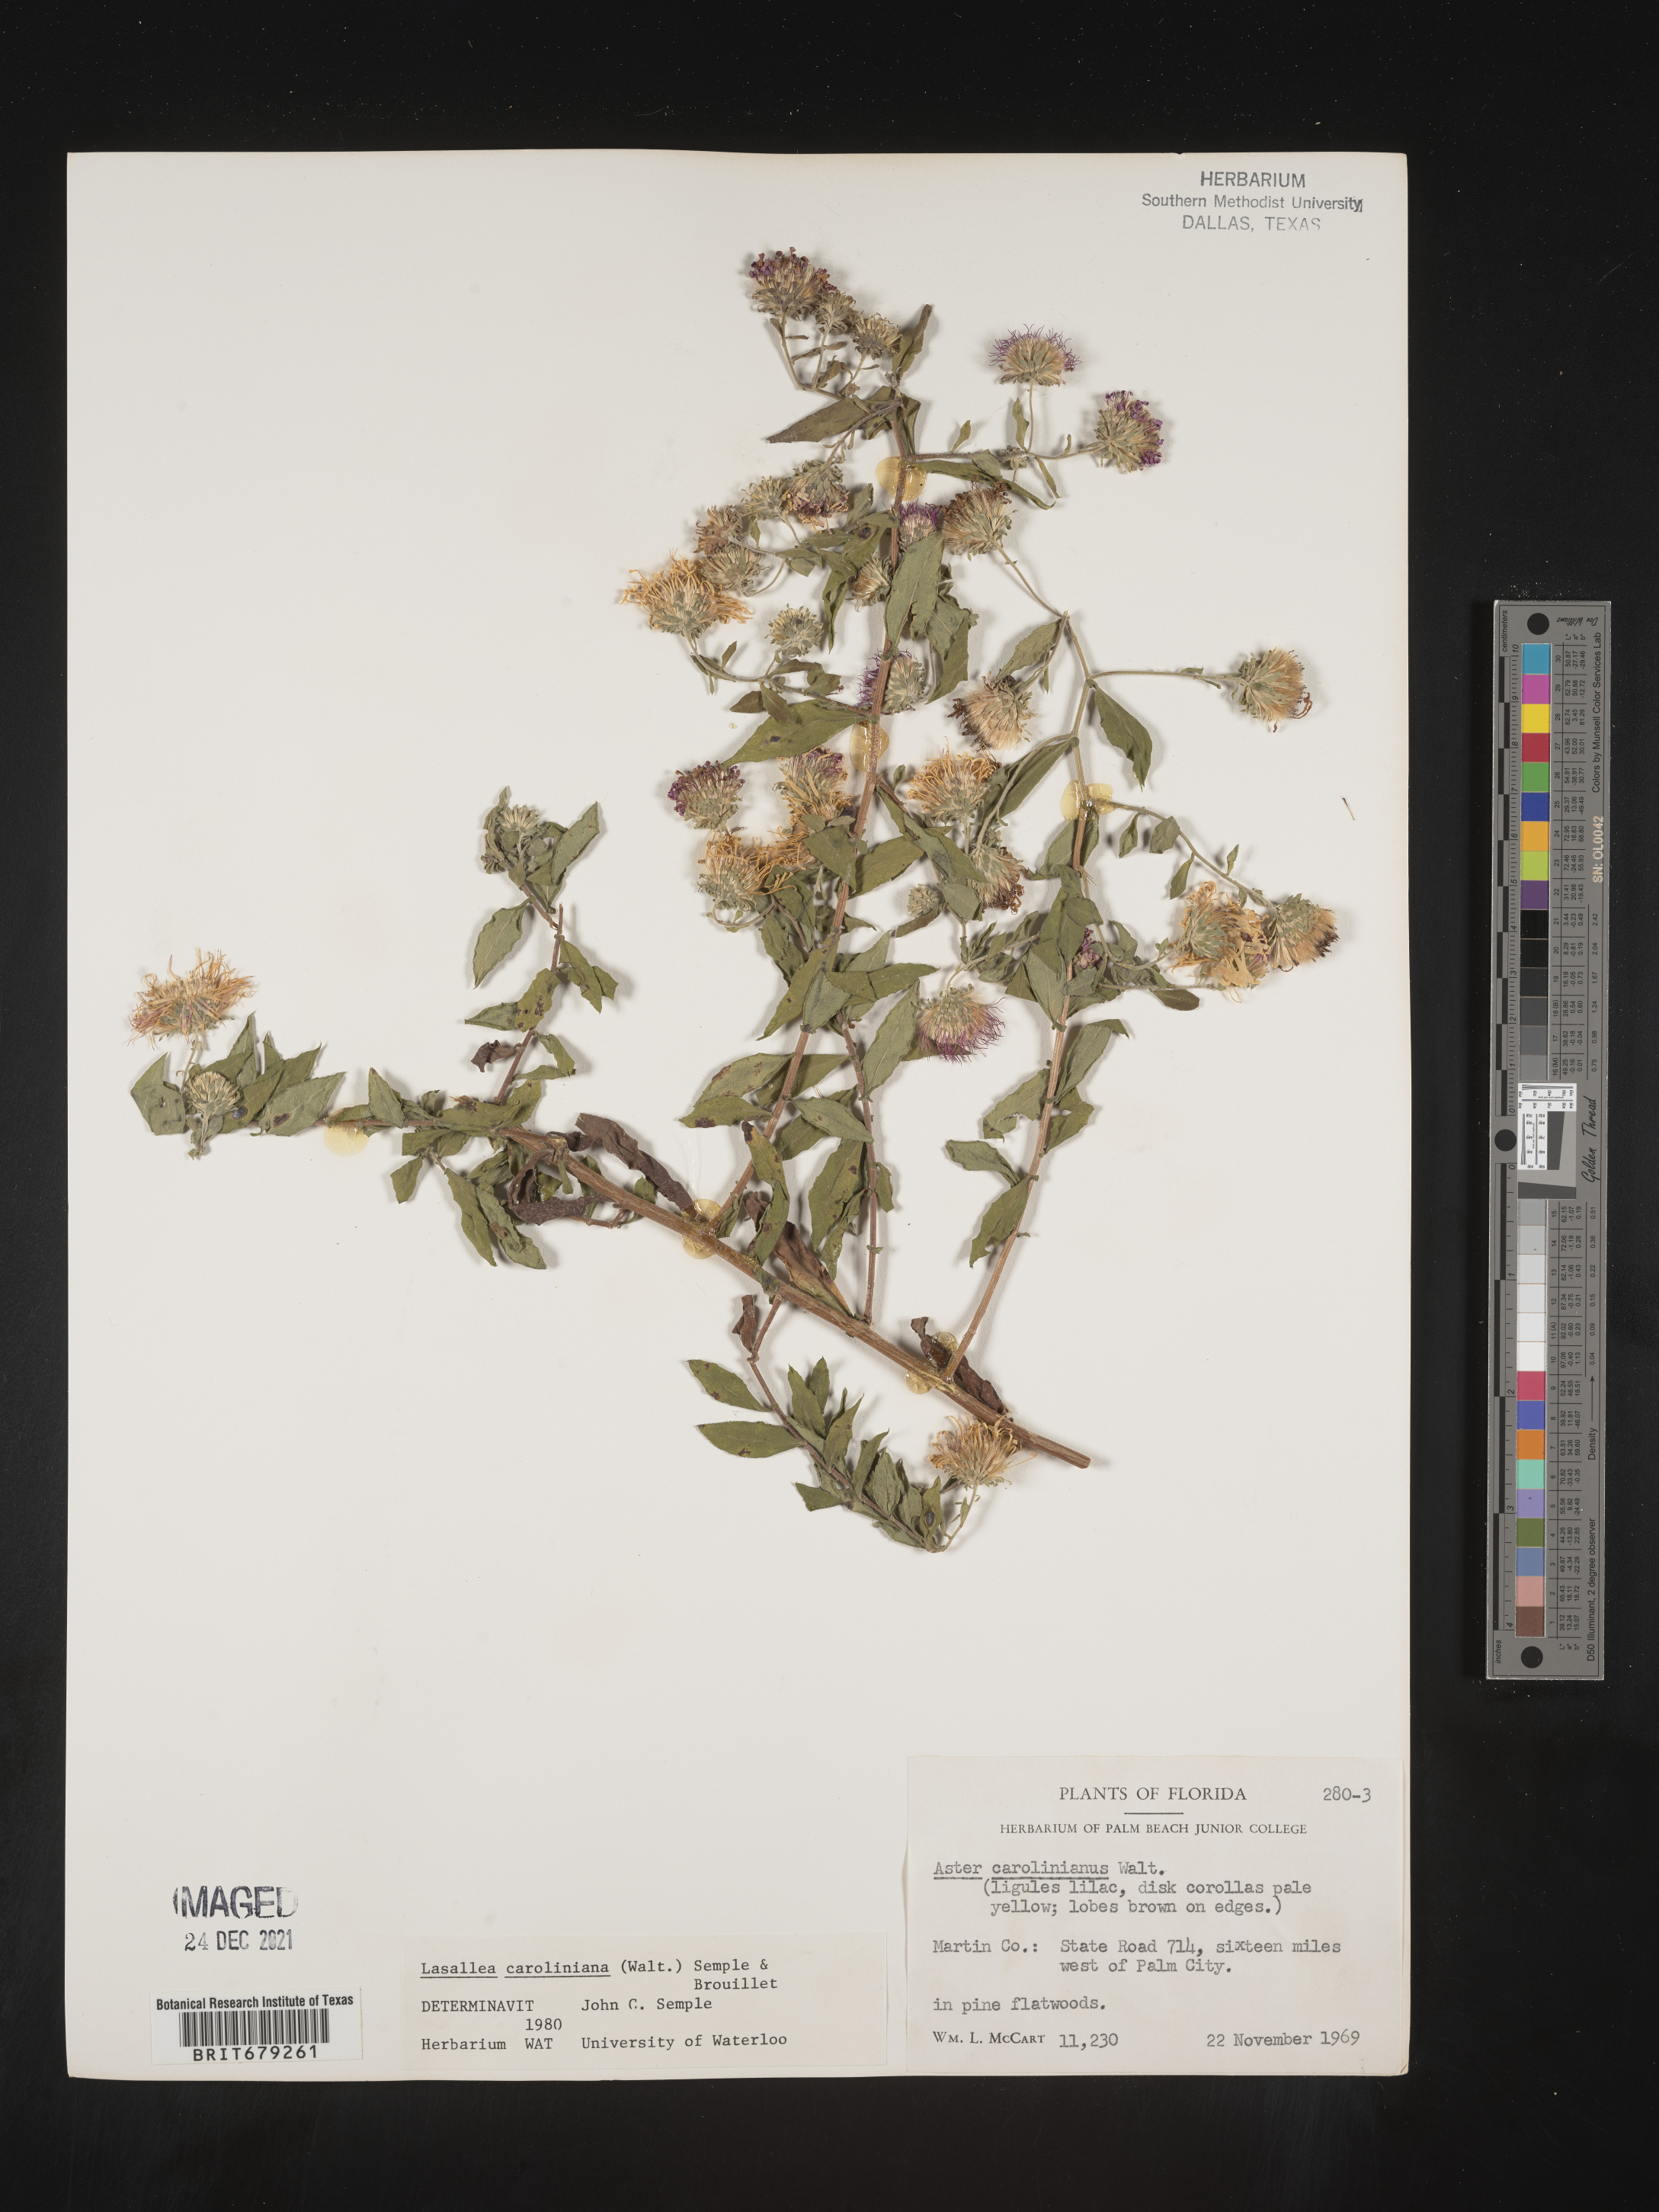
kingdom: Plantae
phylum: Tracheophyta
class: Magnoliopsida
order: Asterales
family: Asteraceae
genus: Ampelaster
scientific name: Ampelaster
